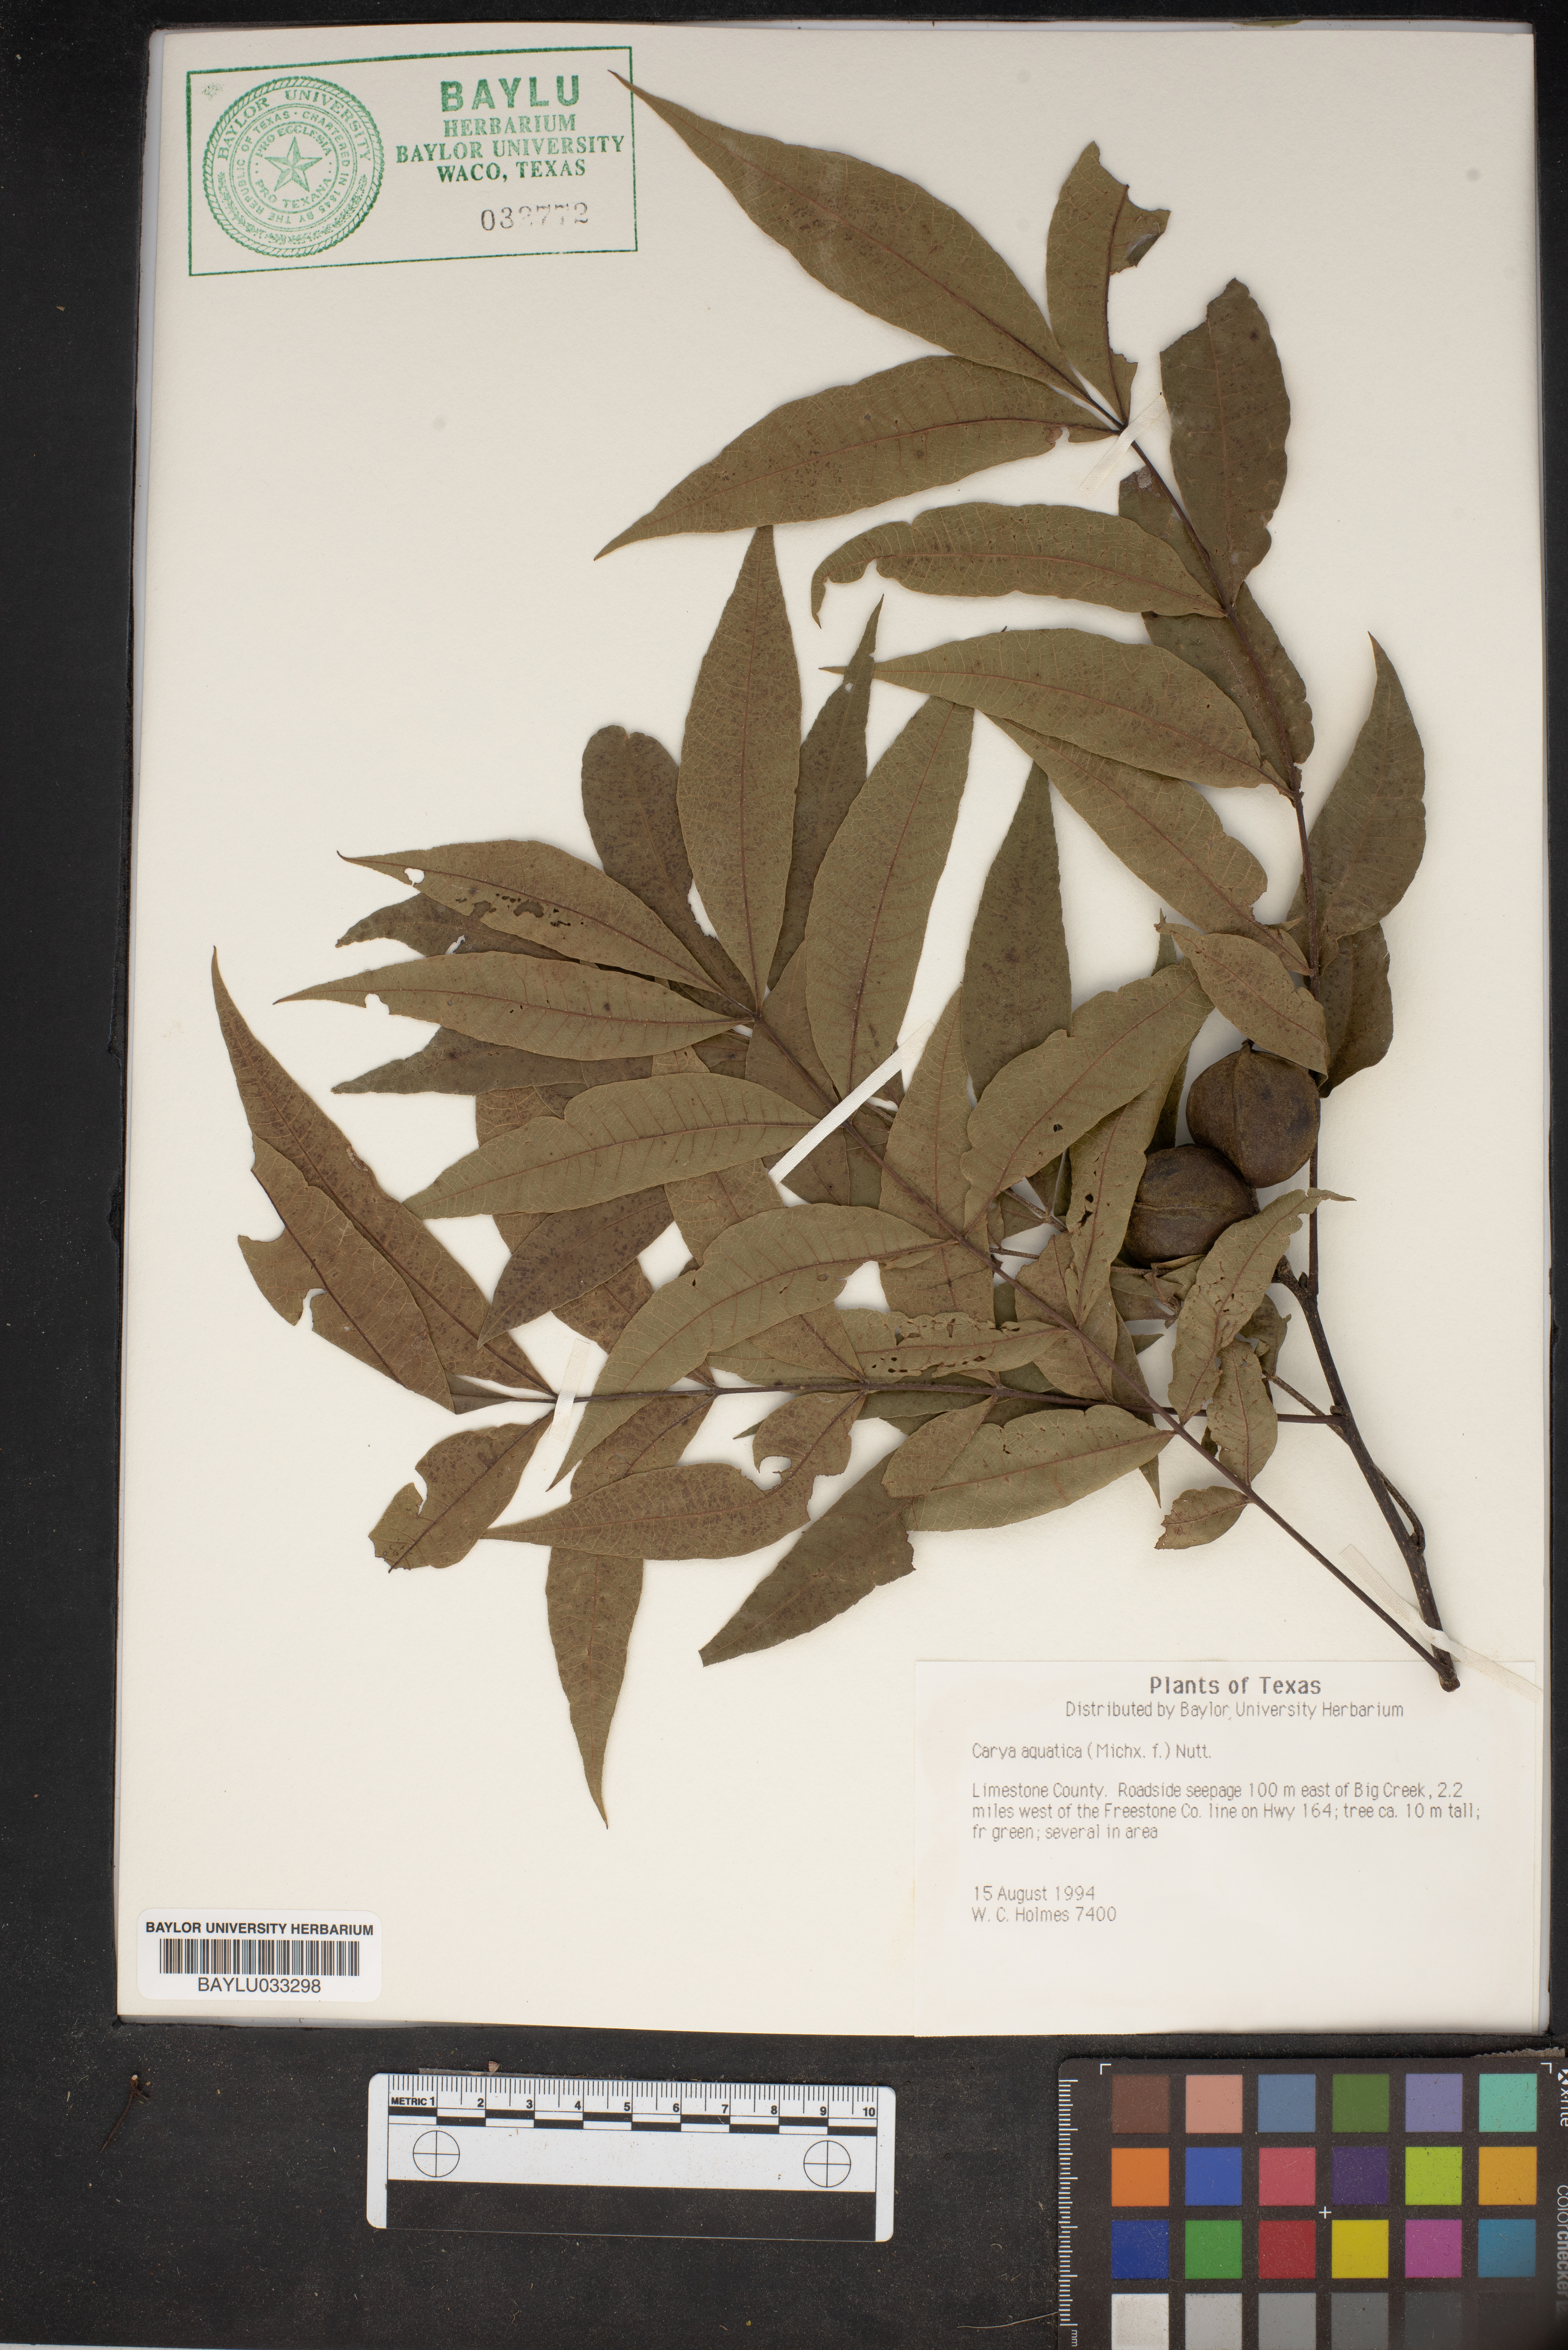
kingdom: Plantae
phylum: Tracheophyta
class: Magnoliopsida
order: Fagales
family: Juglandaceae
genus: Carya
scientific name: Carya aquatica
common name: Water hickory
